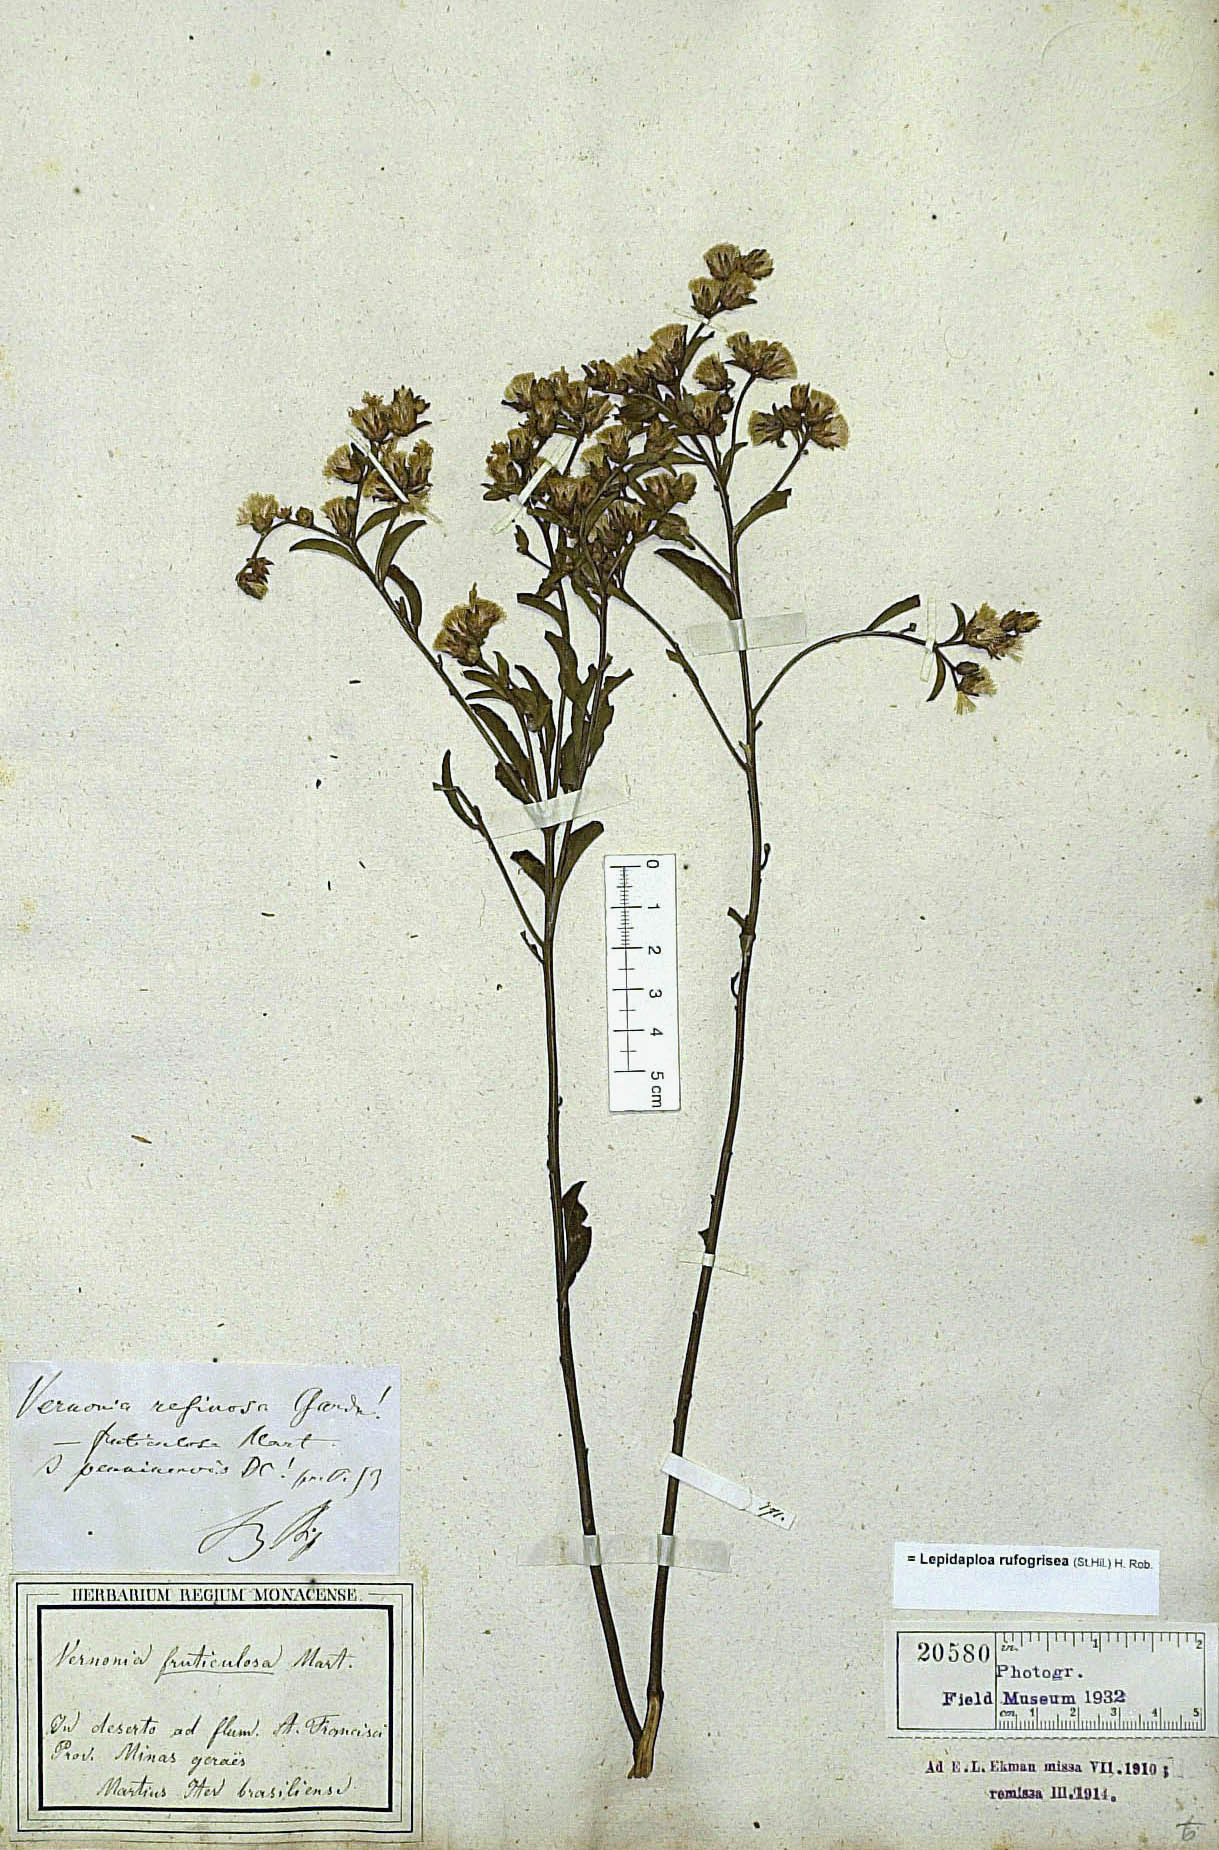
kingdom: Plantae
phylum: Tracheophyta
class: Magnoliopsida
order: Asterales
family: Asteraceae
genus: Lepidaploa
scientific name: Lepidaploa rufogrisea
